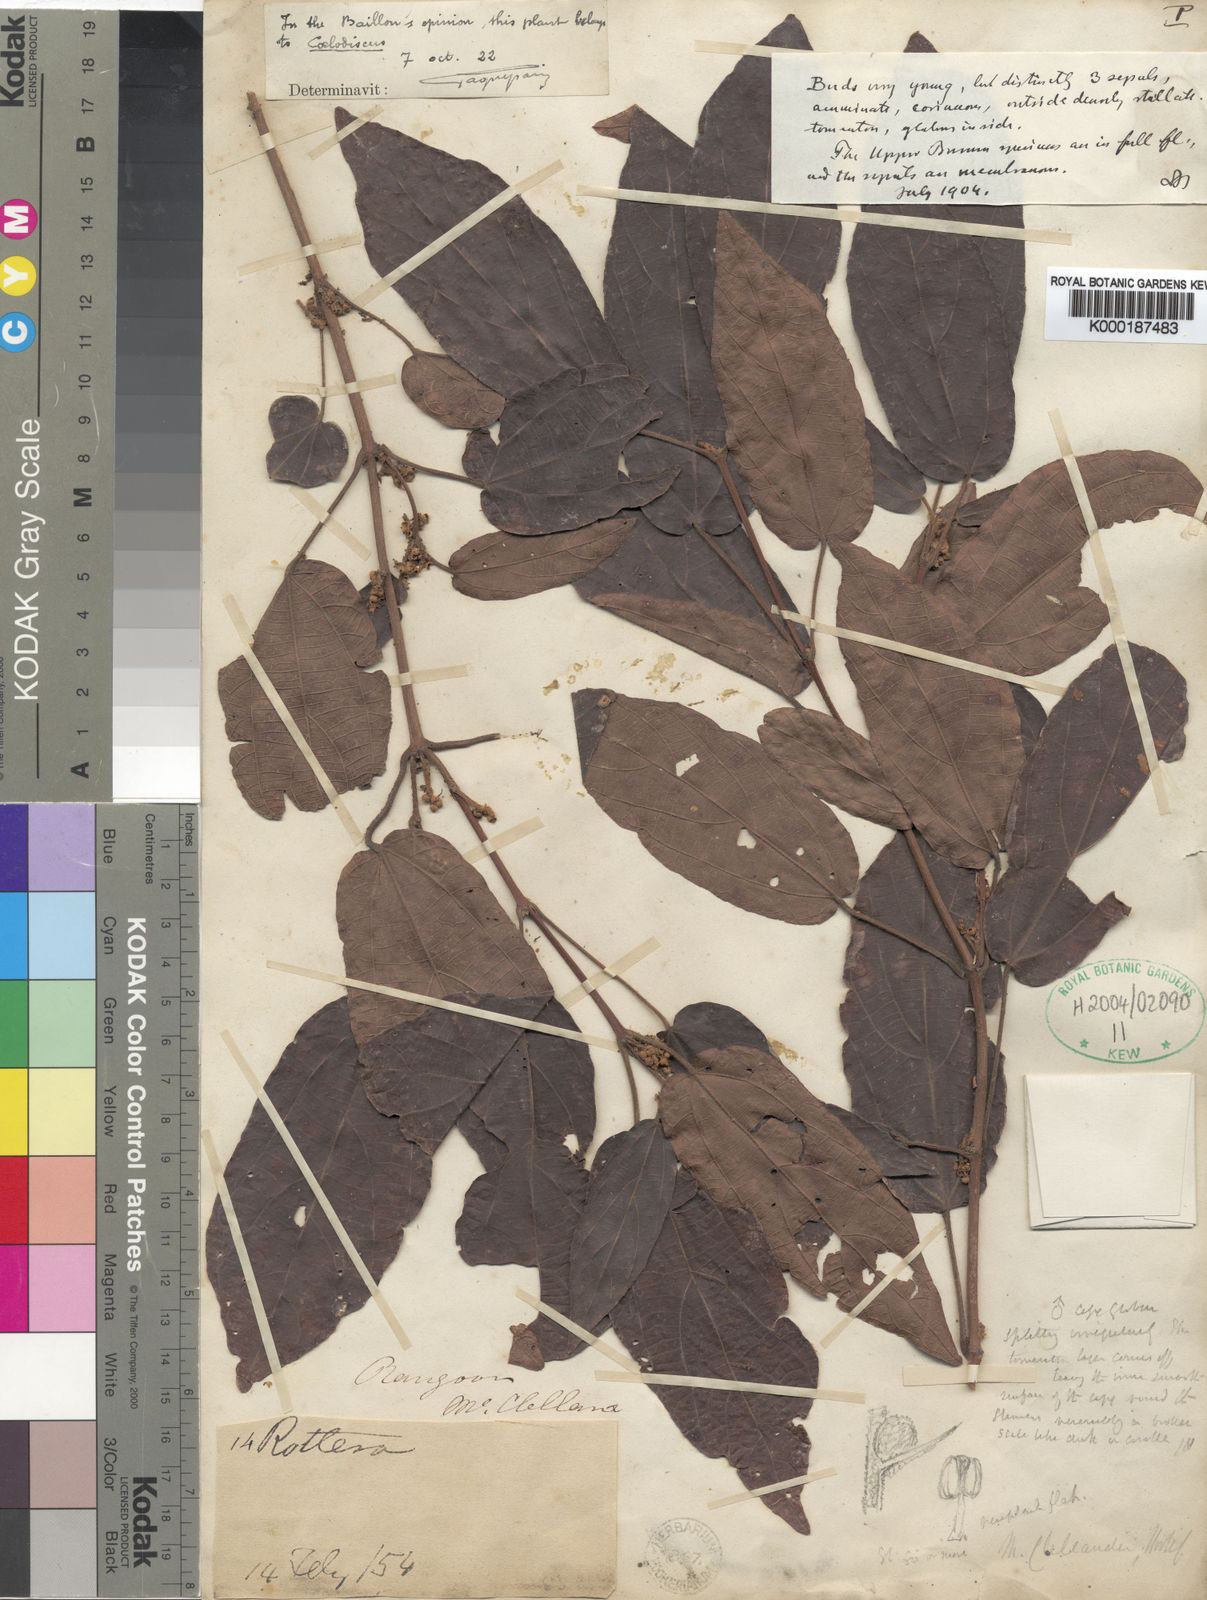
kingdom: Plantae
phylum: Tracheophyta
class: Magnoliopsida
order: Malpighiales
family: Euphorbiaceae
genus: Mallotus
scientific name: Mallotus glabriusculus
